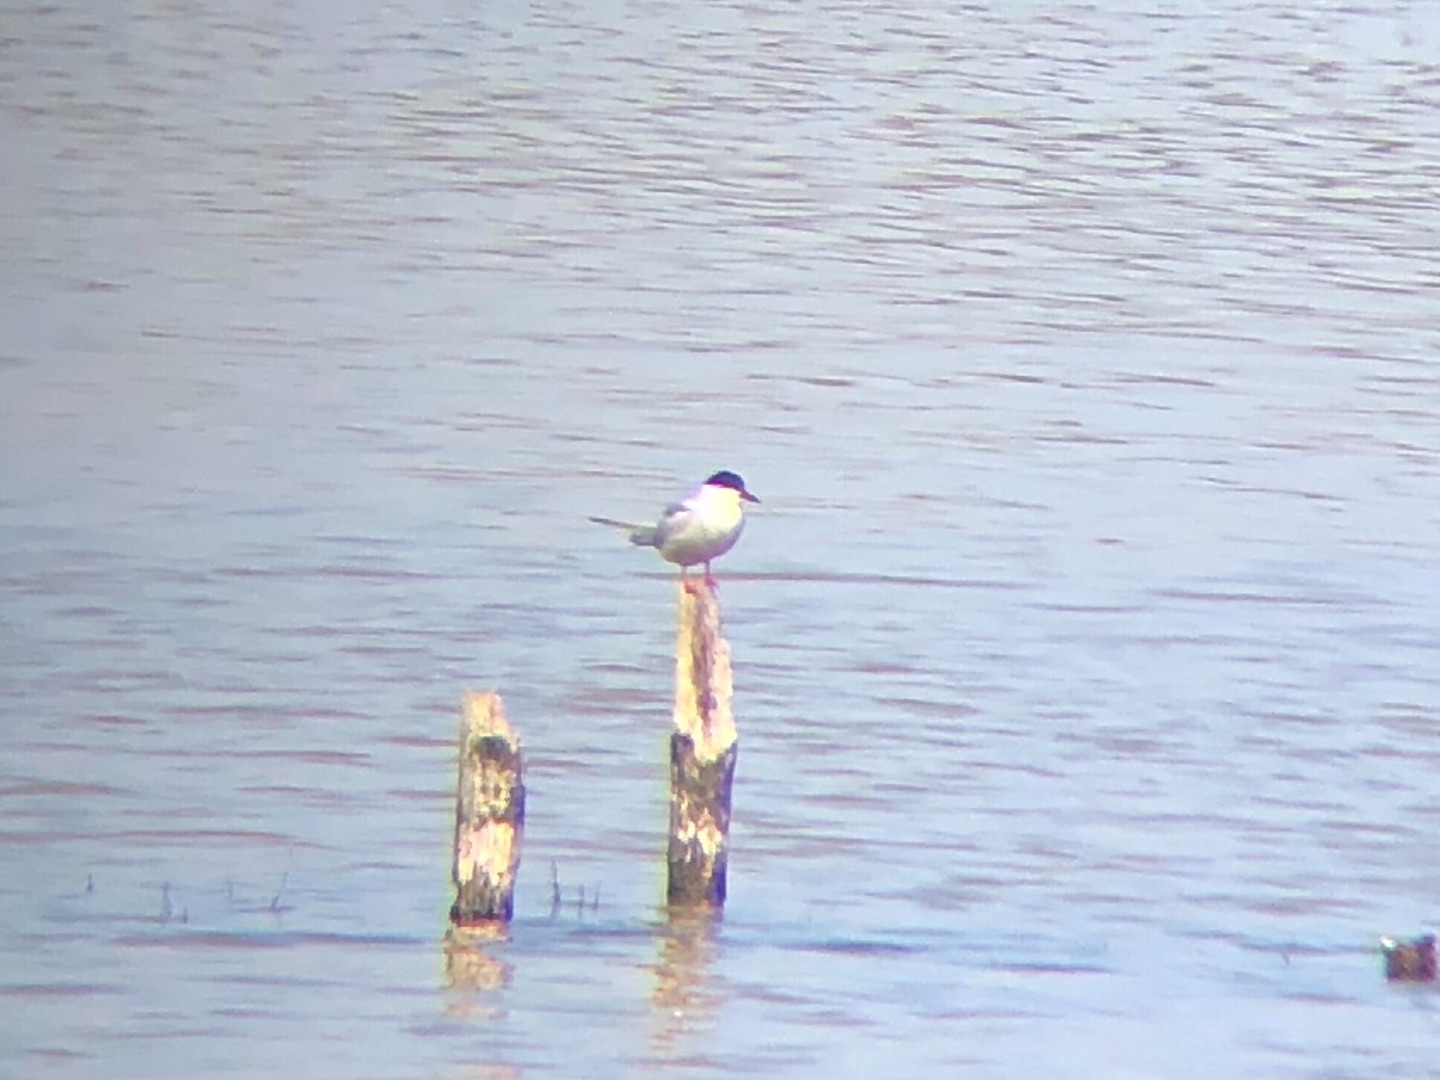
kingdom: Animalia
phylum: Chordata
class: Aves
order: Charadriiformes
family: Laridae
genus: Sterna
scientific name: Sterna hirundo
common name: Fjordterne
